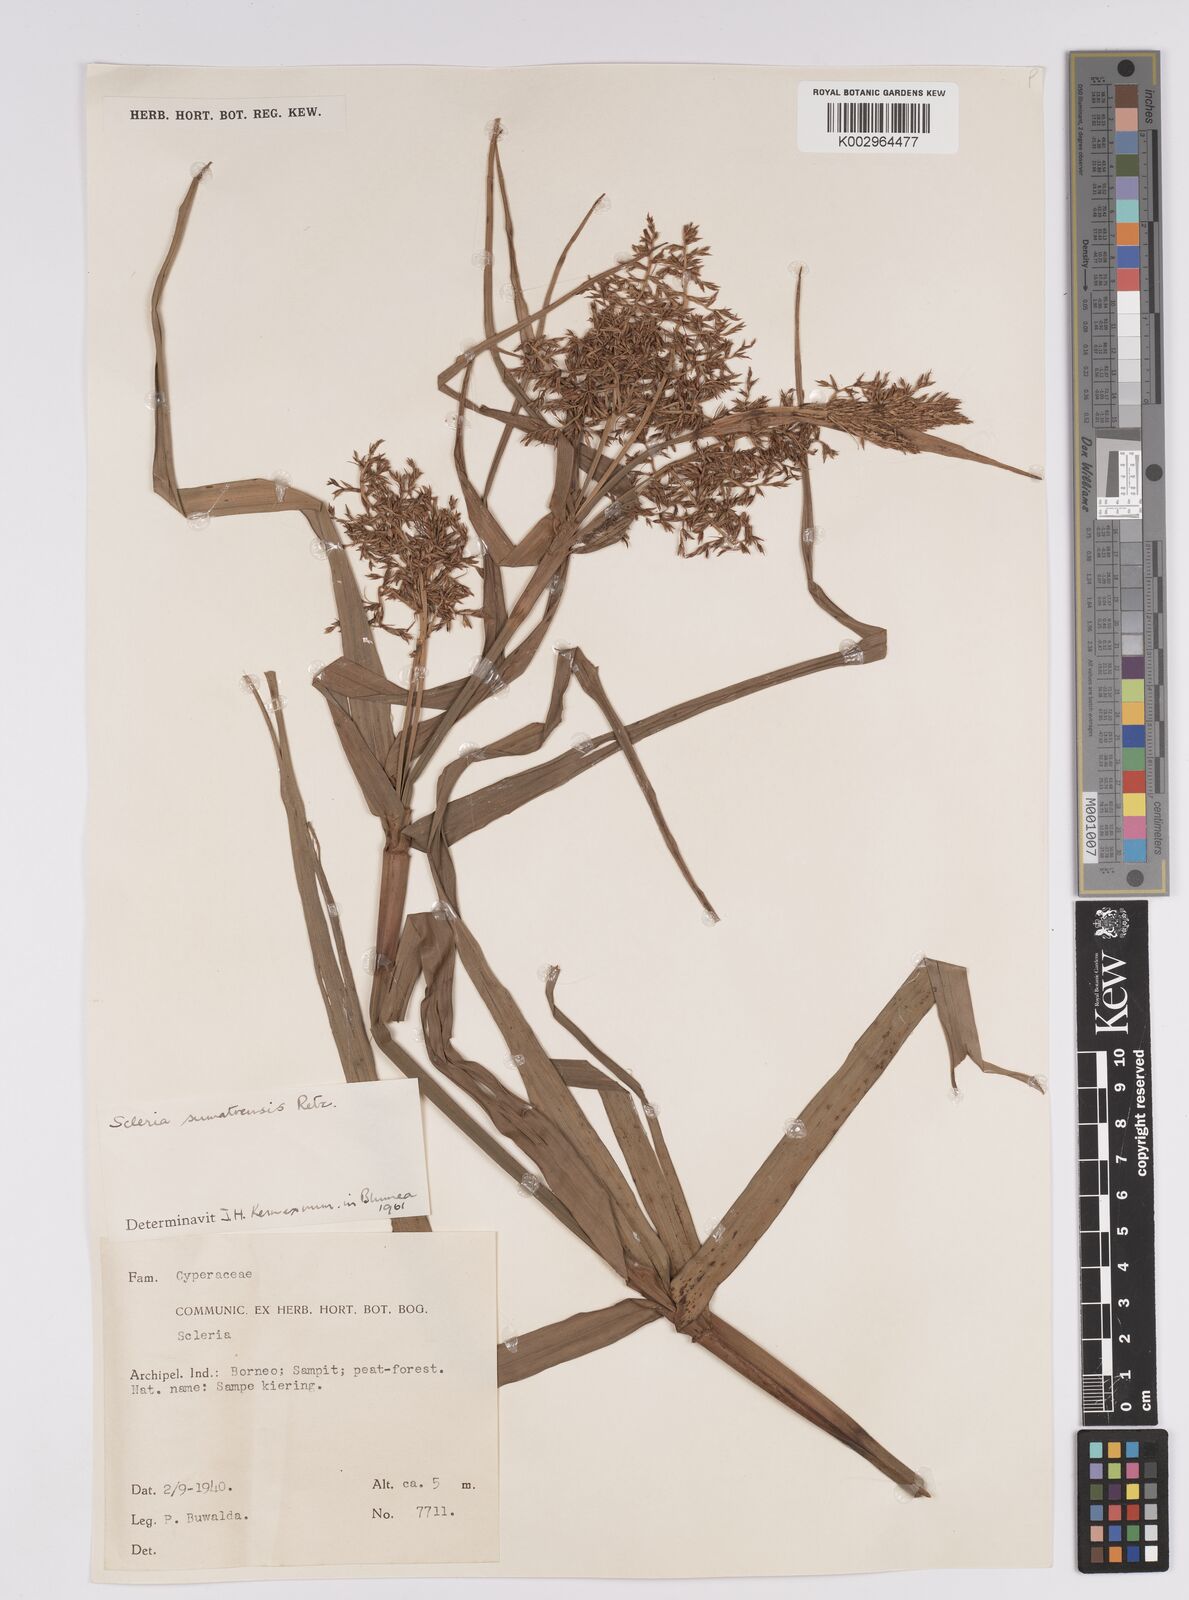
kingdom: Plantae
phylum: Tracheophyta
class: Liliopsida
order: Poales
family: Cyperaceae
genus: Scleria
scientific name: Scleria sumatrensis
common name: Sumatran scleria
